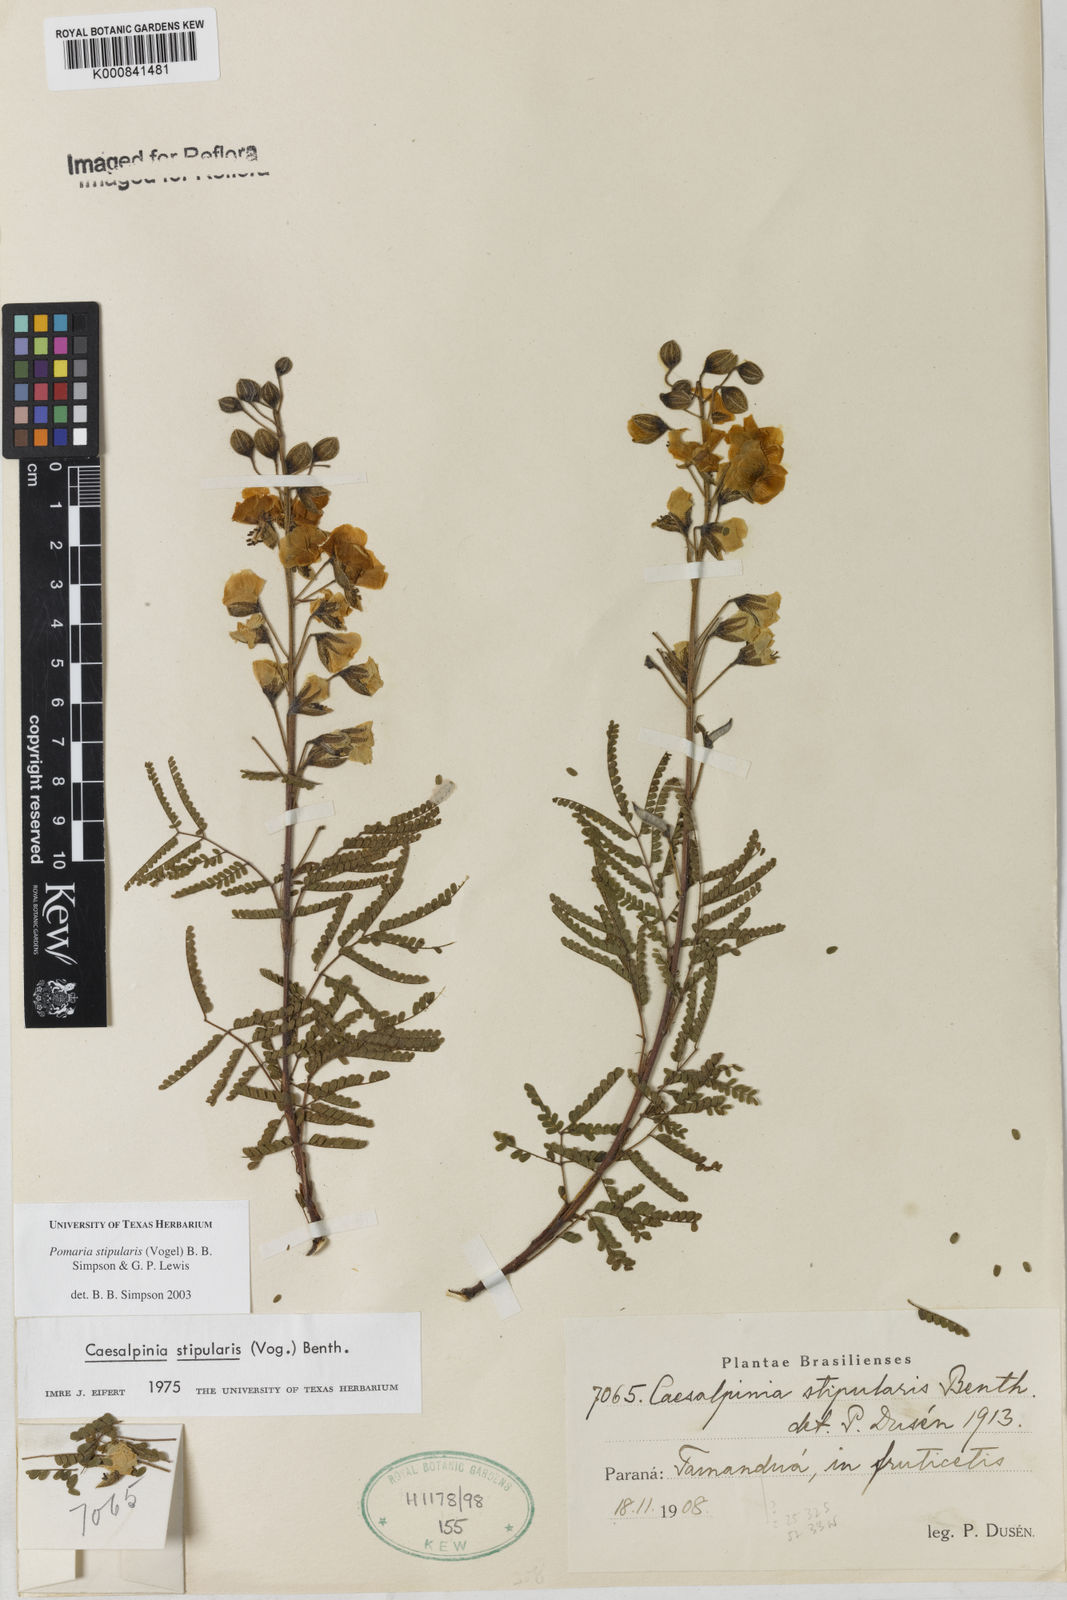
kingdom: Plantae
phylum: Tracheophyta
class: Magnoliopsida
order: Fabales
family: Fabaceae
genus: Pomaria
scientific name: Pomaria stipularis
